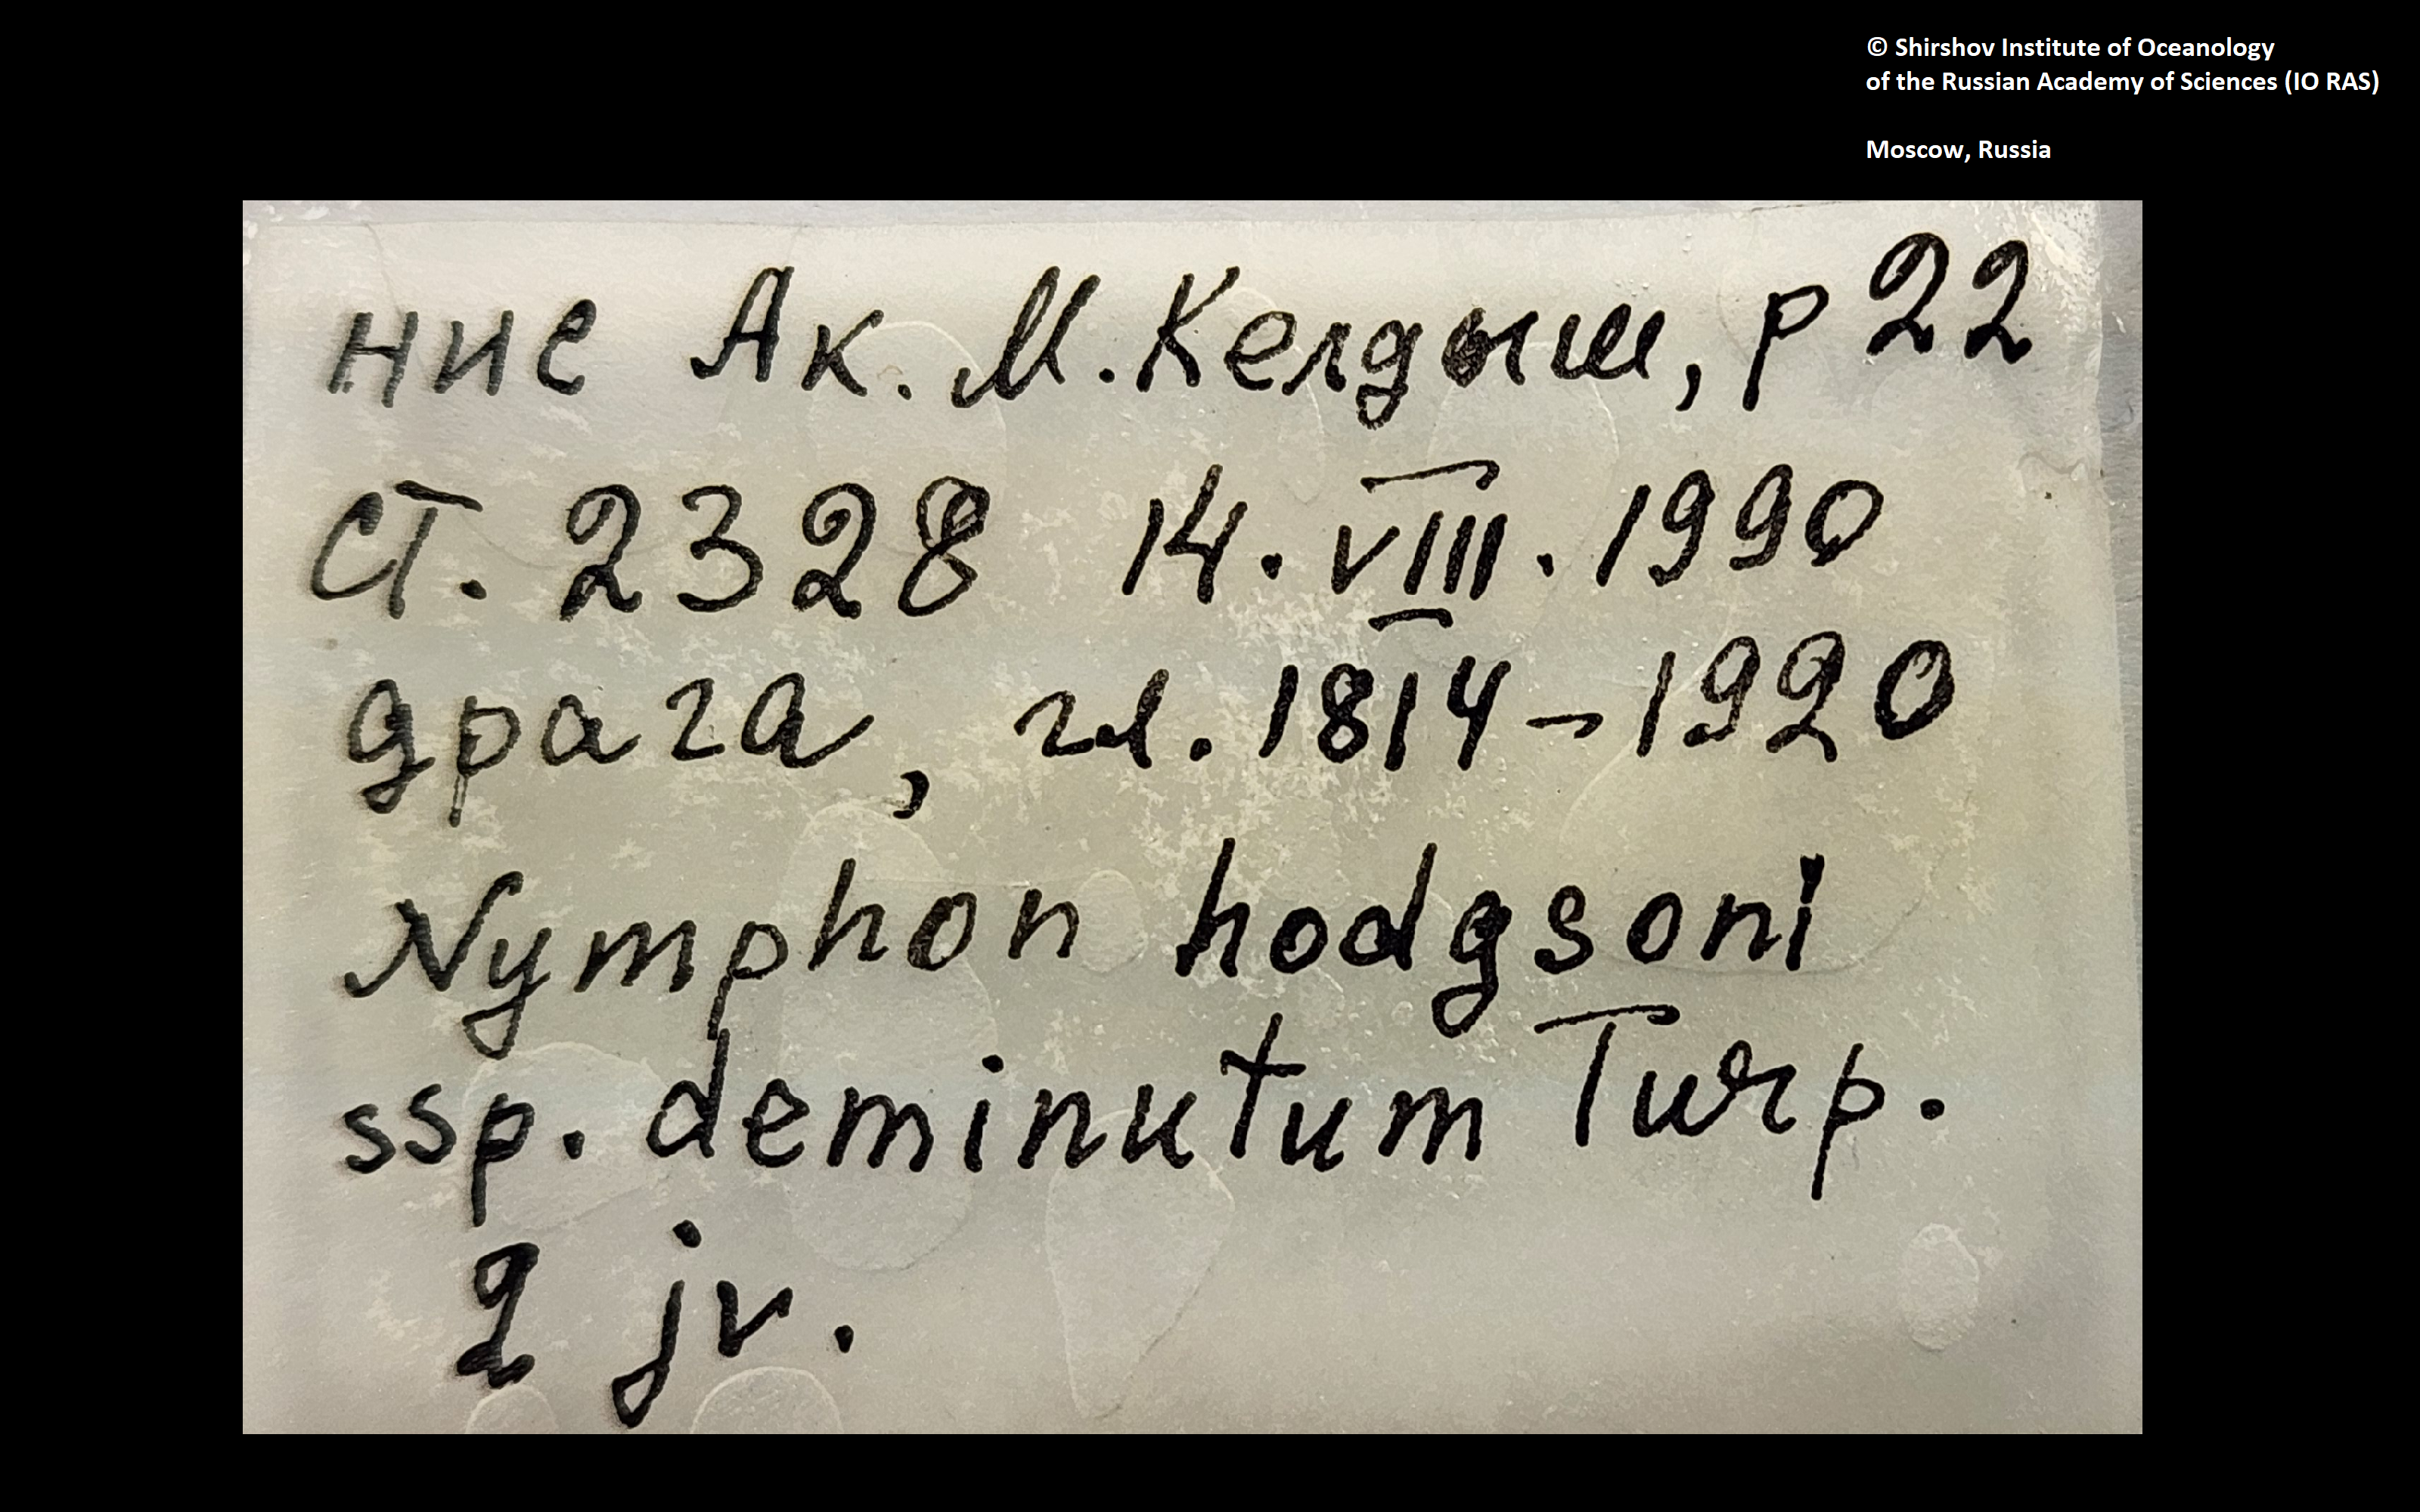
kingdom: Animalia
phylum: Arthropoda
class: Pycnogonida
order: Pantopoda
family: Nymphonidae
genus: Nymphon
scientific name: Nymphon hodgsoni
